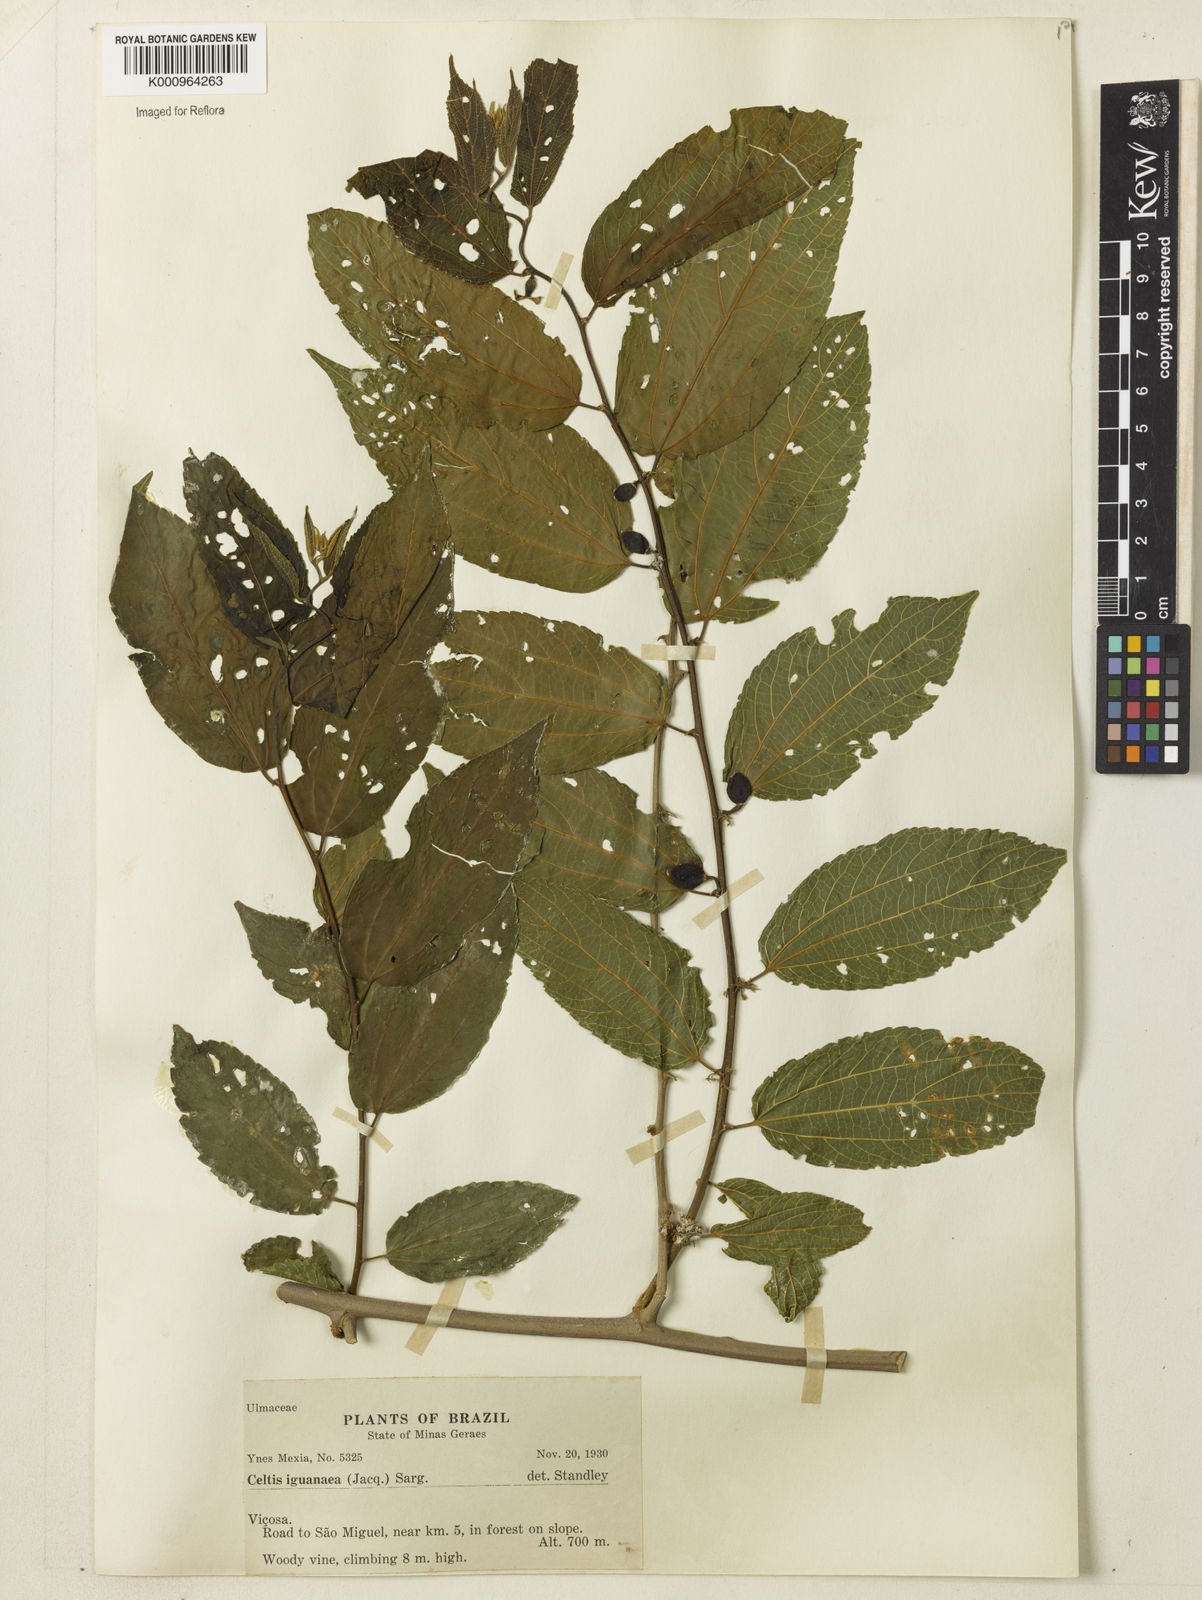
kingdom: Plantae
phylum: Tracheophyta
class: Magnoliopsida
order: Rosales
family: Cannabaceae
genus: Celtis
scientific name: Celtis iguanaea
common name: Iguana hackberry
